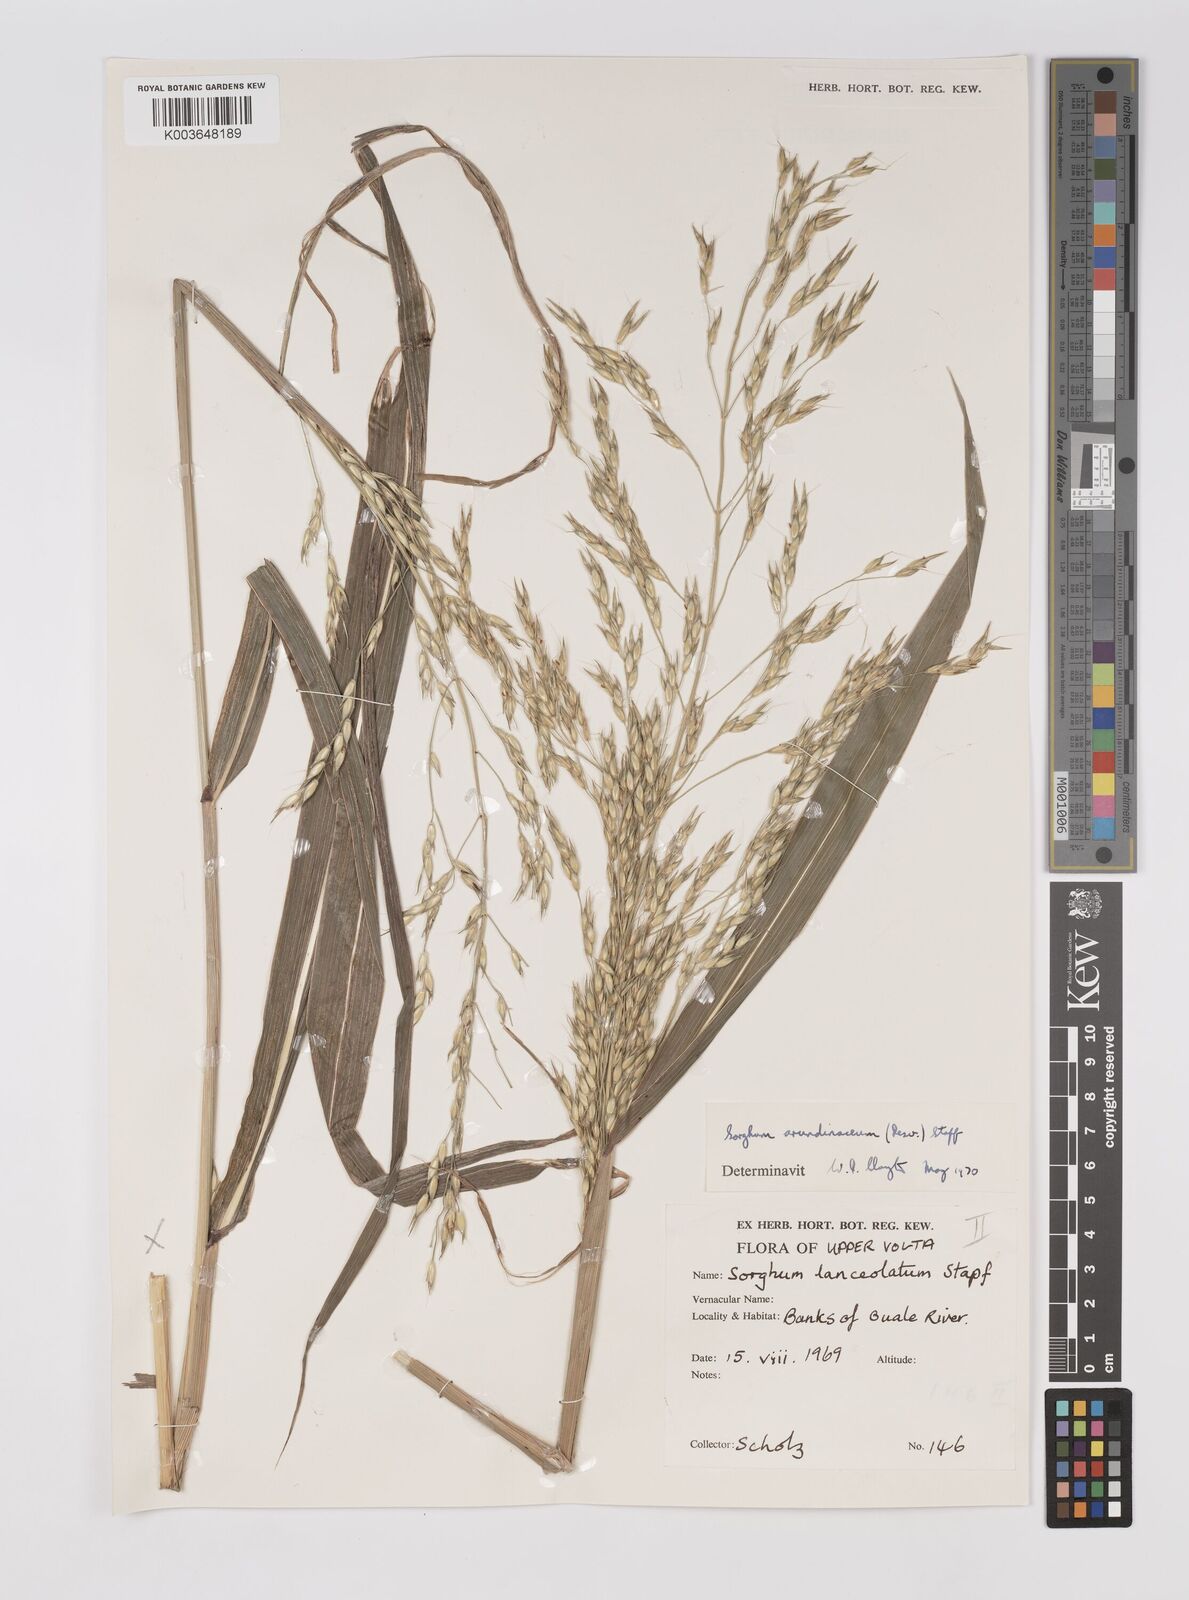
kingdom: Plantae
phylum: Tracheophyta
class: Liliopsida
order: Poales
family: Poaceae
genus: Sorghum
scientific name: Sorghum arundinaceum
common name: Sorghum
